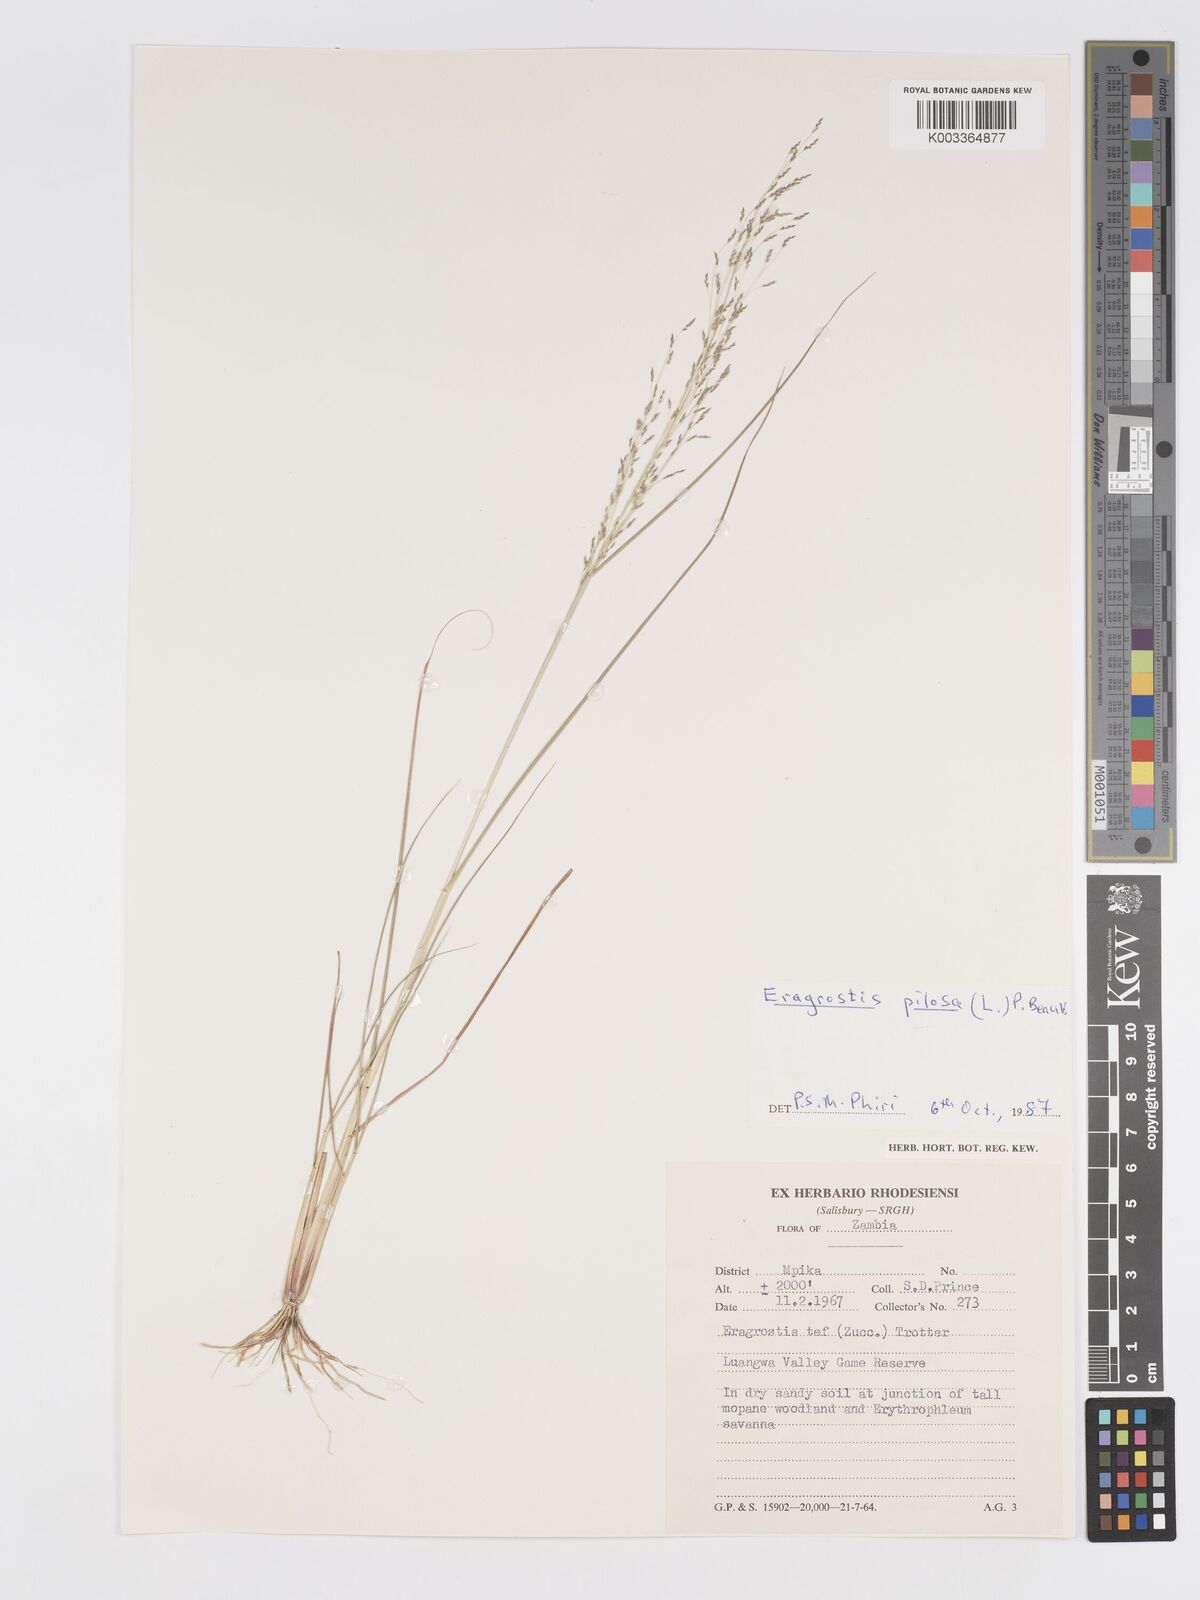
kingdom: Plantae
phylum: Tracheophyta
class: Liliopsida
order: Poales
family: Poaceae
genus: Eragrostis
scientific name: Eragrostis pilosa
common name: Indian lovegrass
